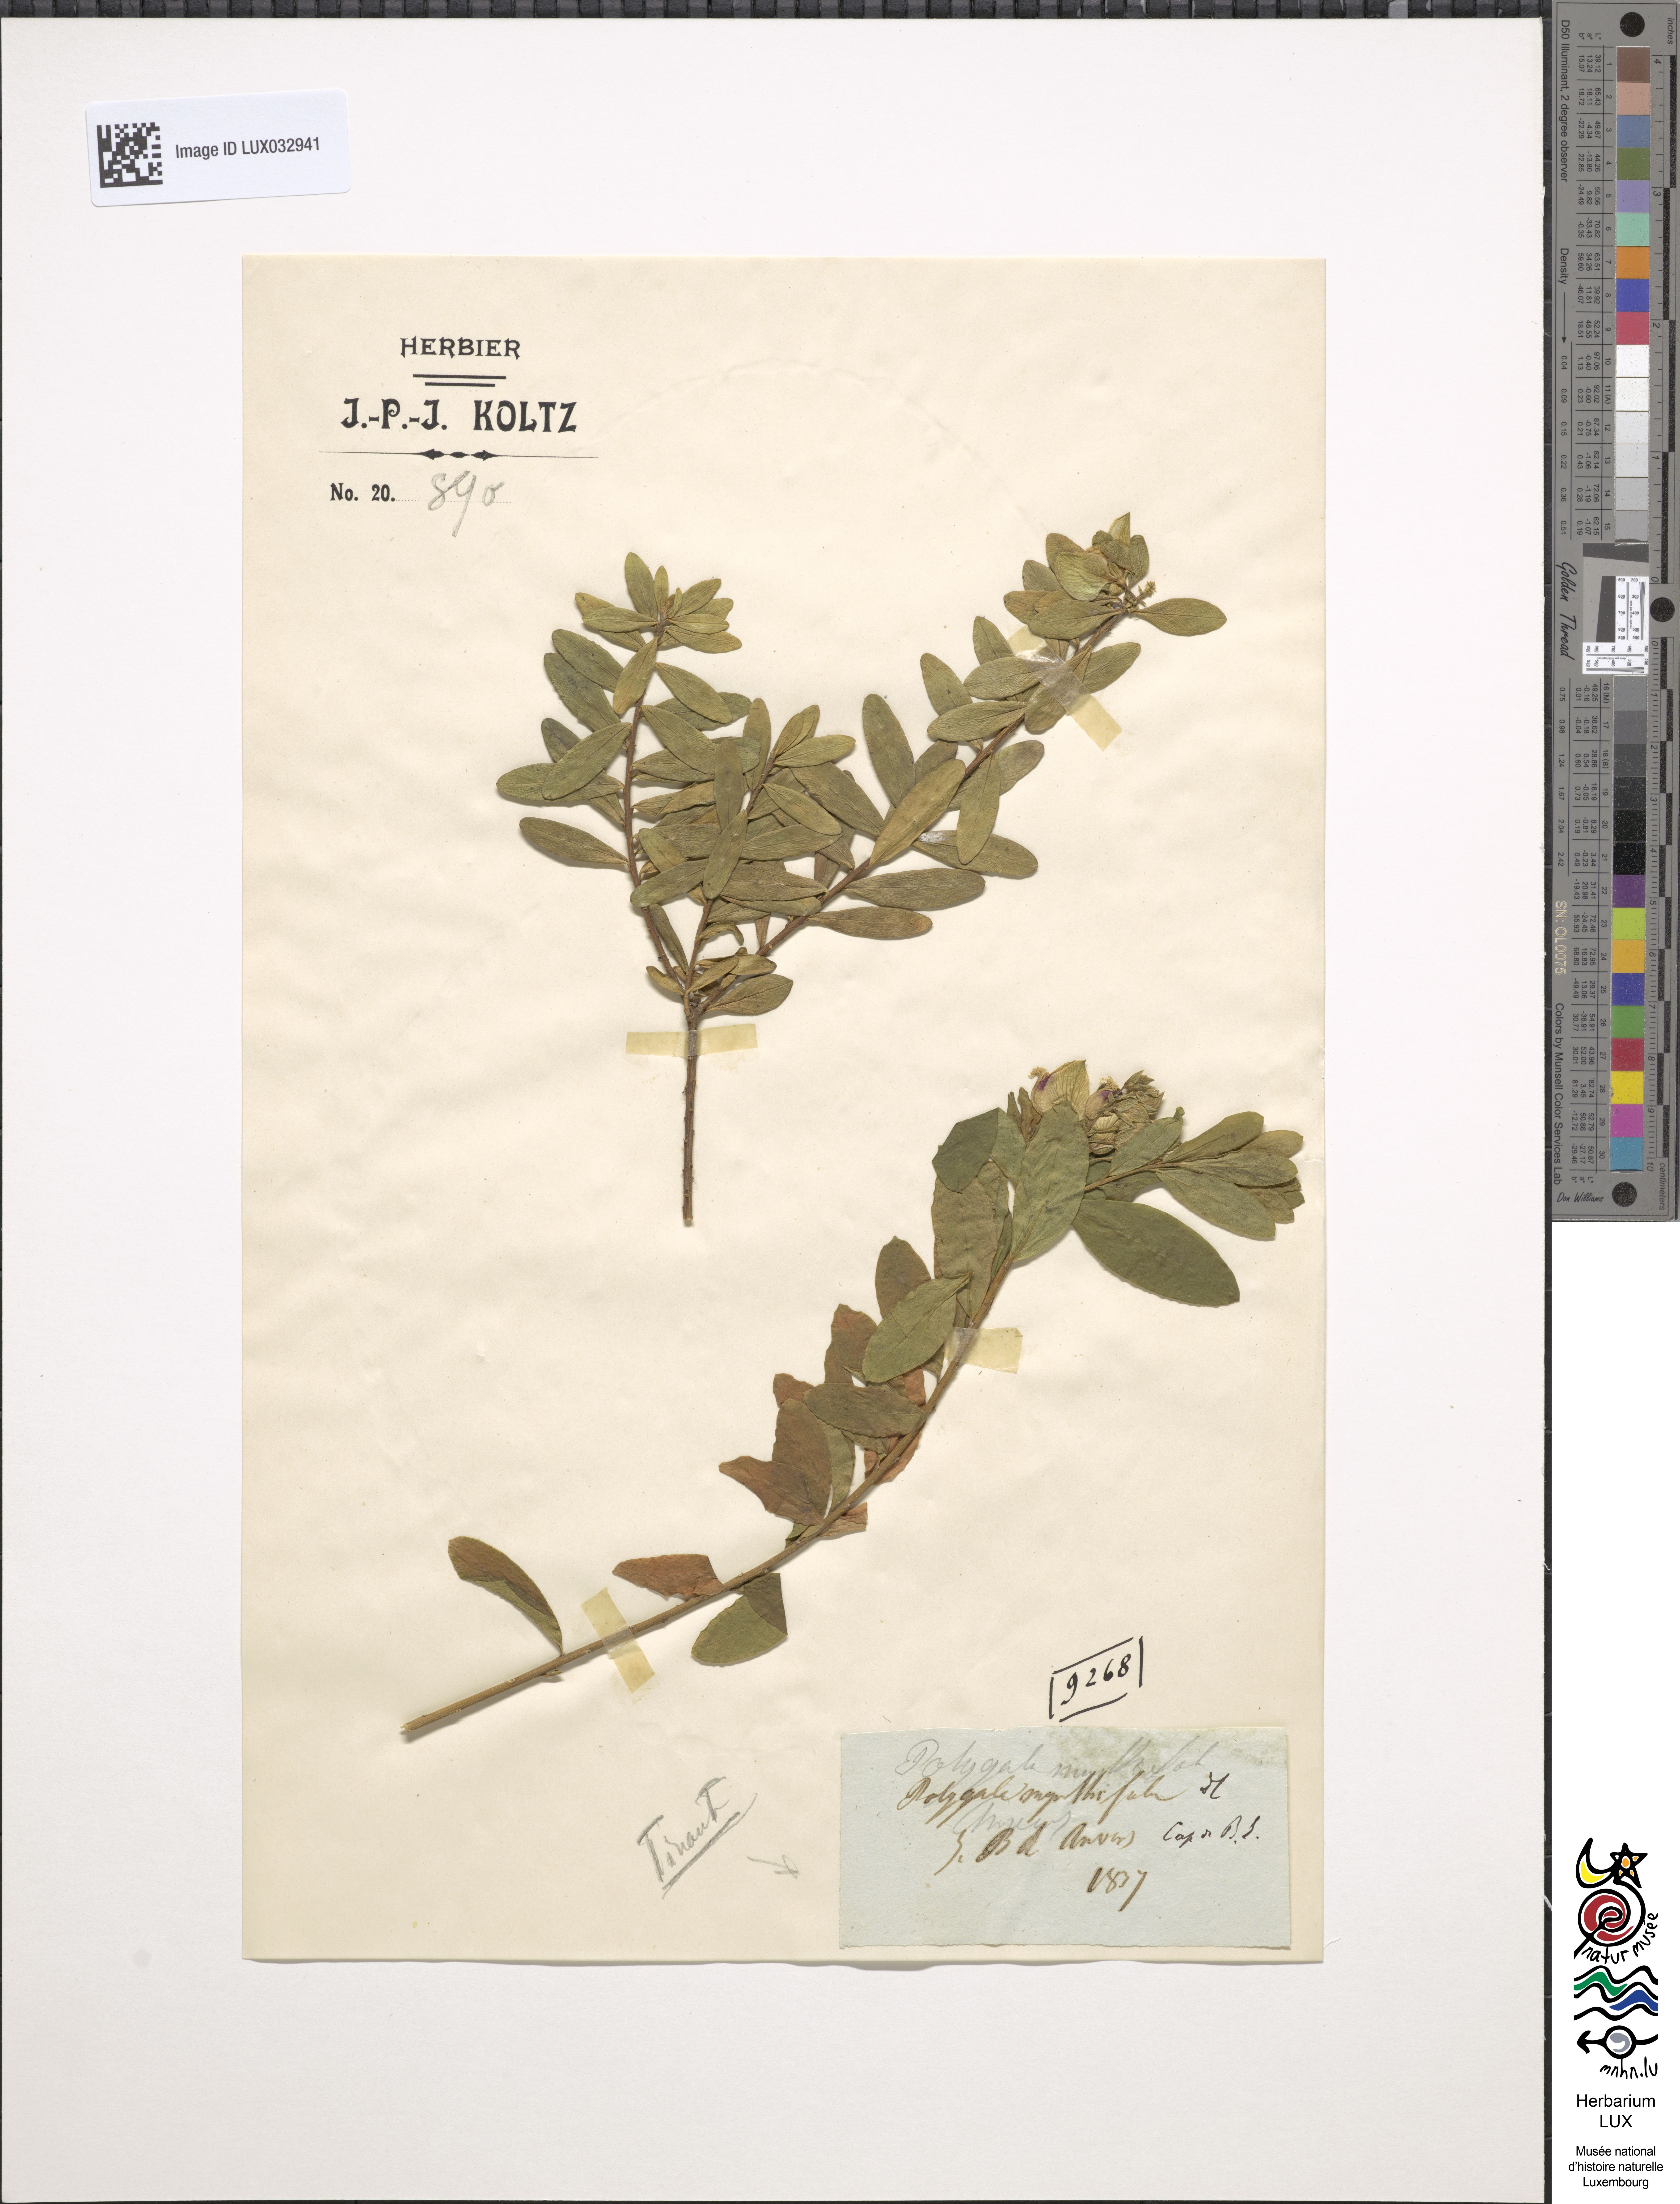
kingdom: Plantae
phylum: Tracheophyta
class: Magnoliopsida
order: Fabales
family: Polygalaceae
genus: Polygala
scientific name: Polygala myrtifolia
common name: Myrtle-leaf milkwort
